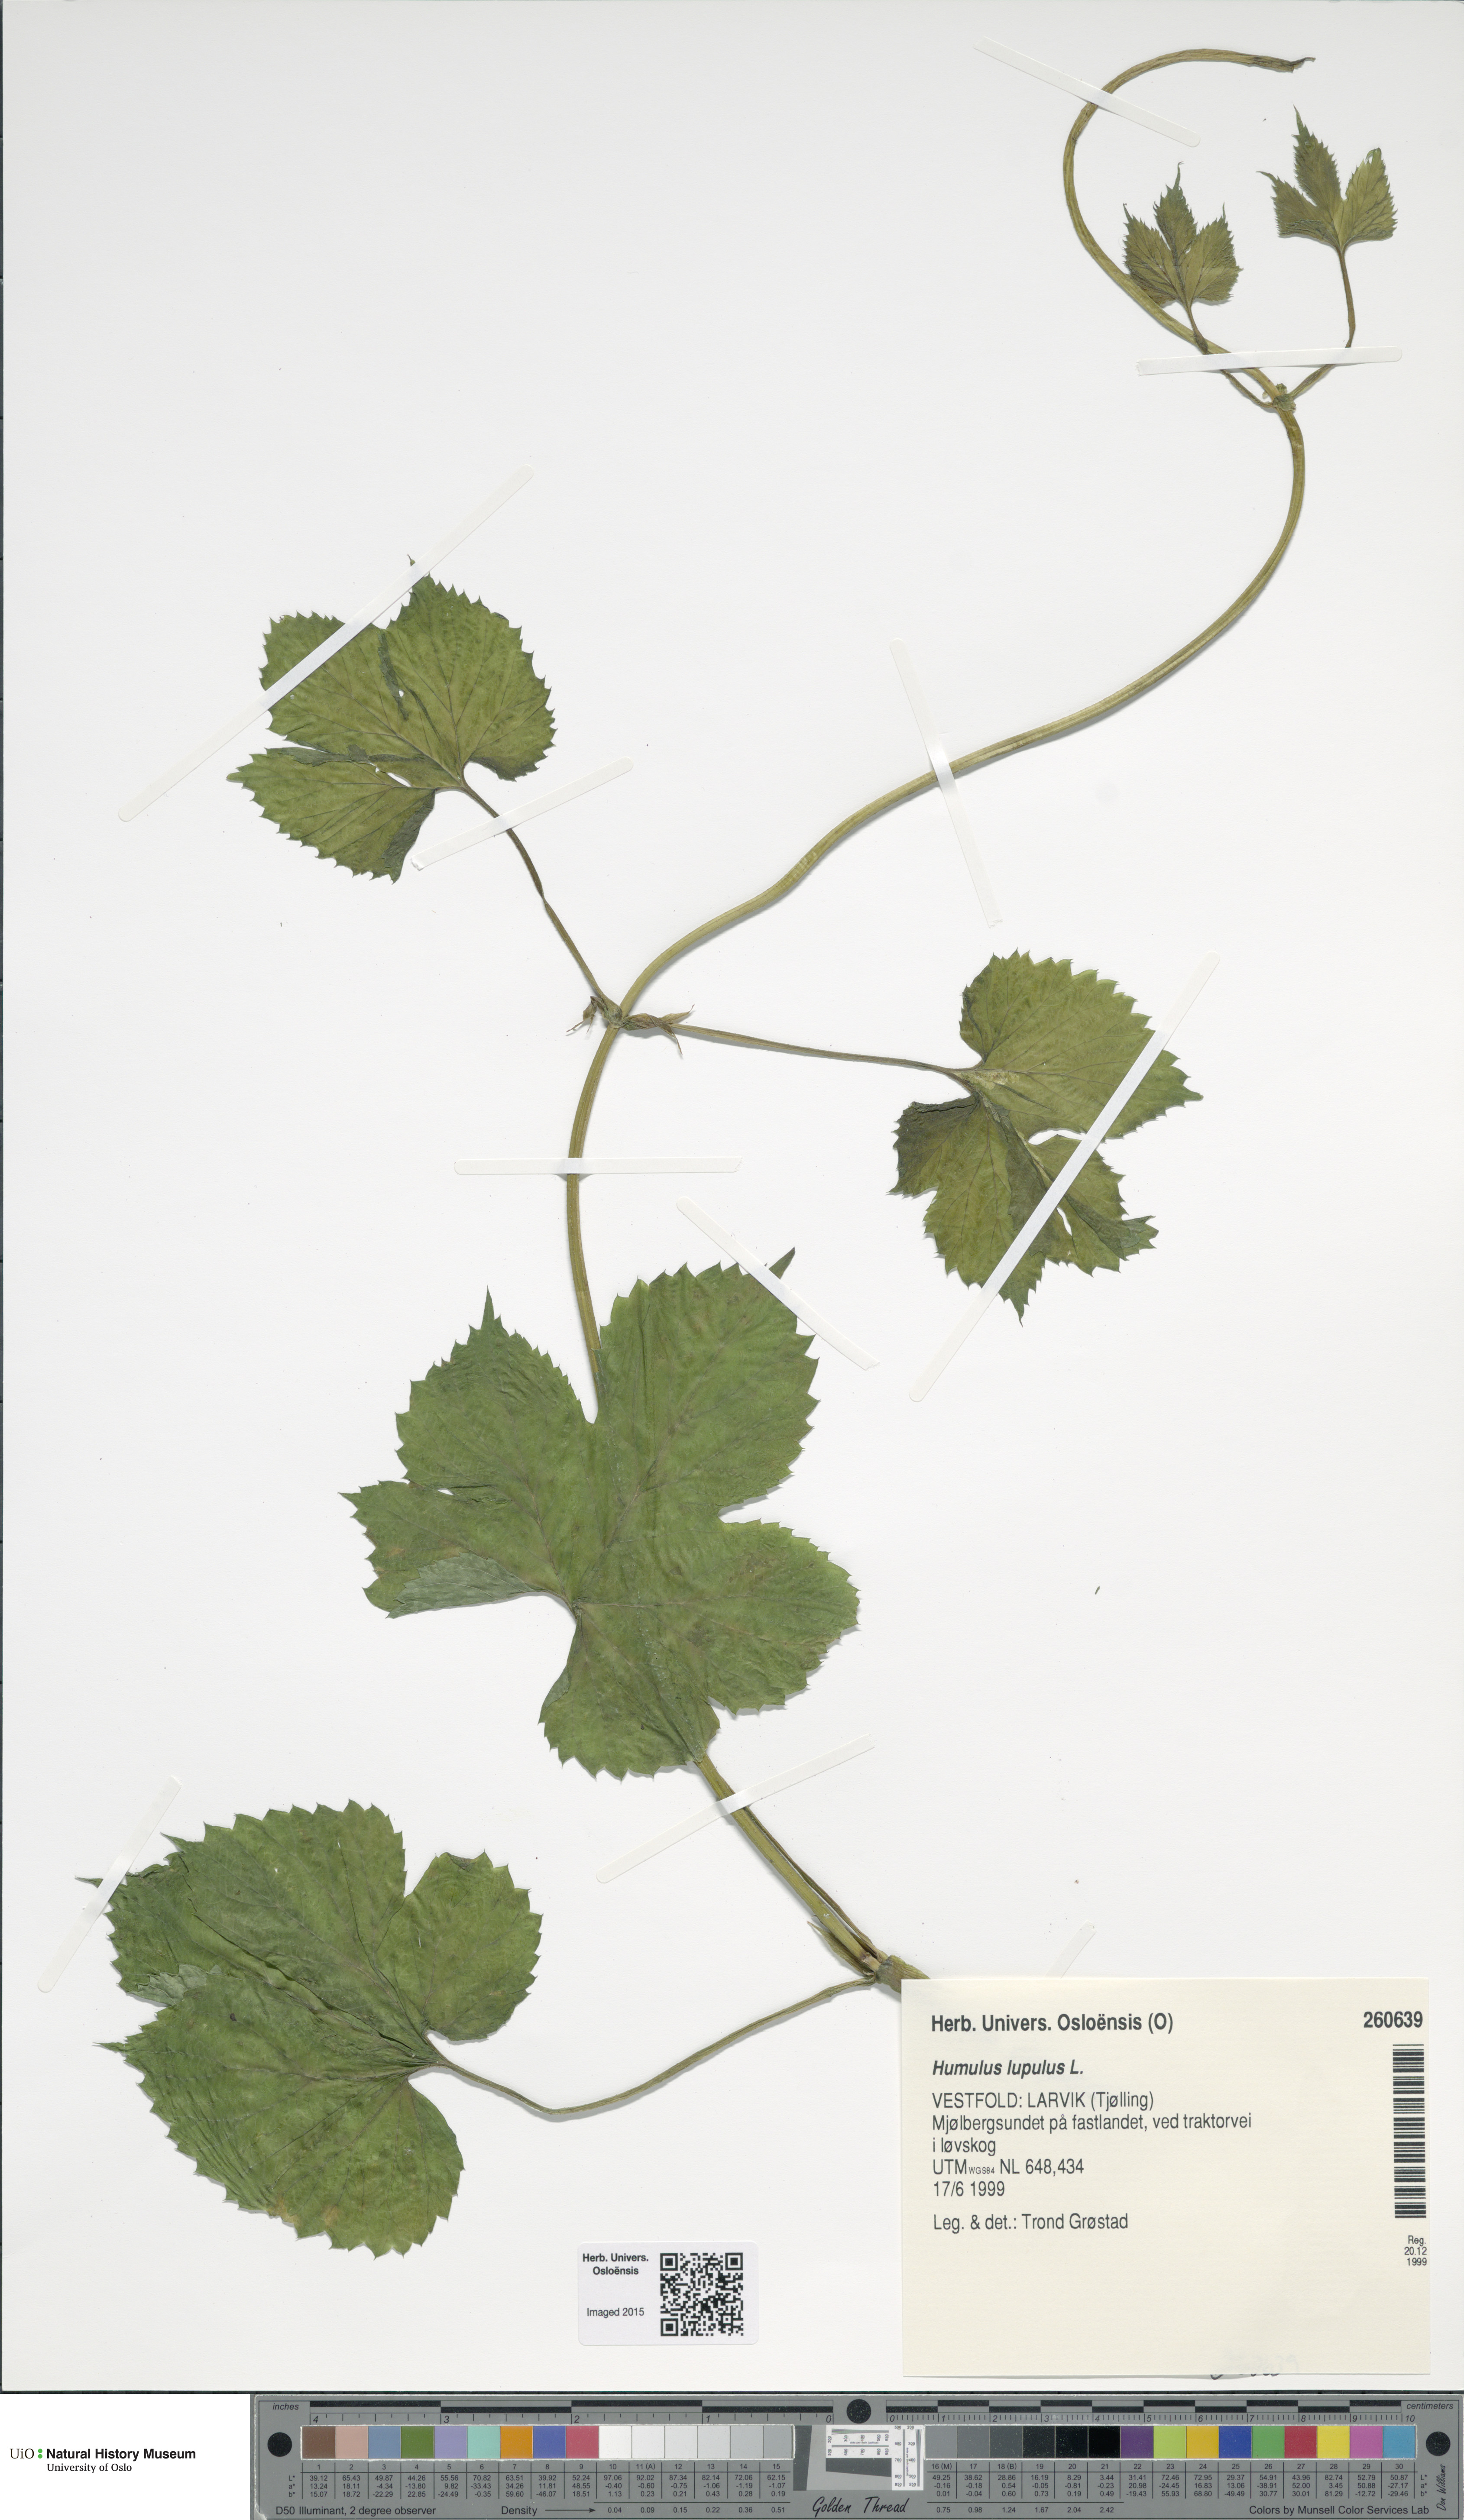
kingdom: Plantae
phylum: Tracheophyta
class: Magnoliopsida
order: Rosales
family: Cannabaceae
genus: Humulus
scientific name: Humulus lupulus
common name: Hop
